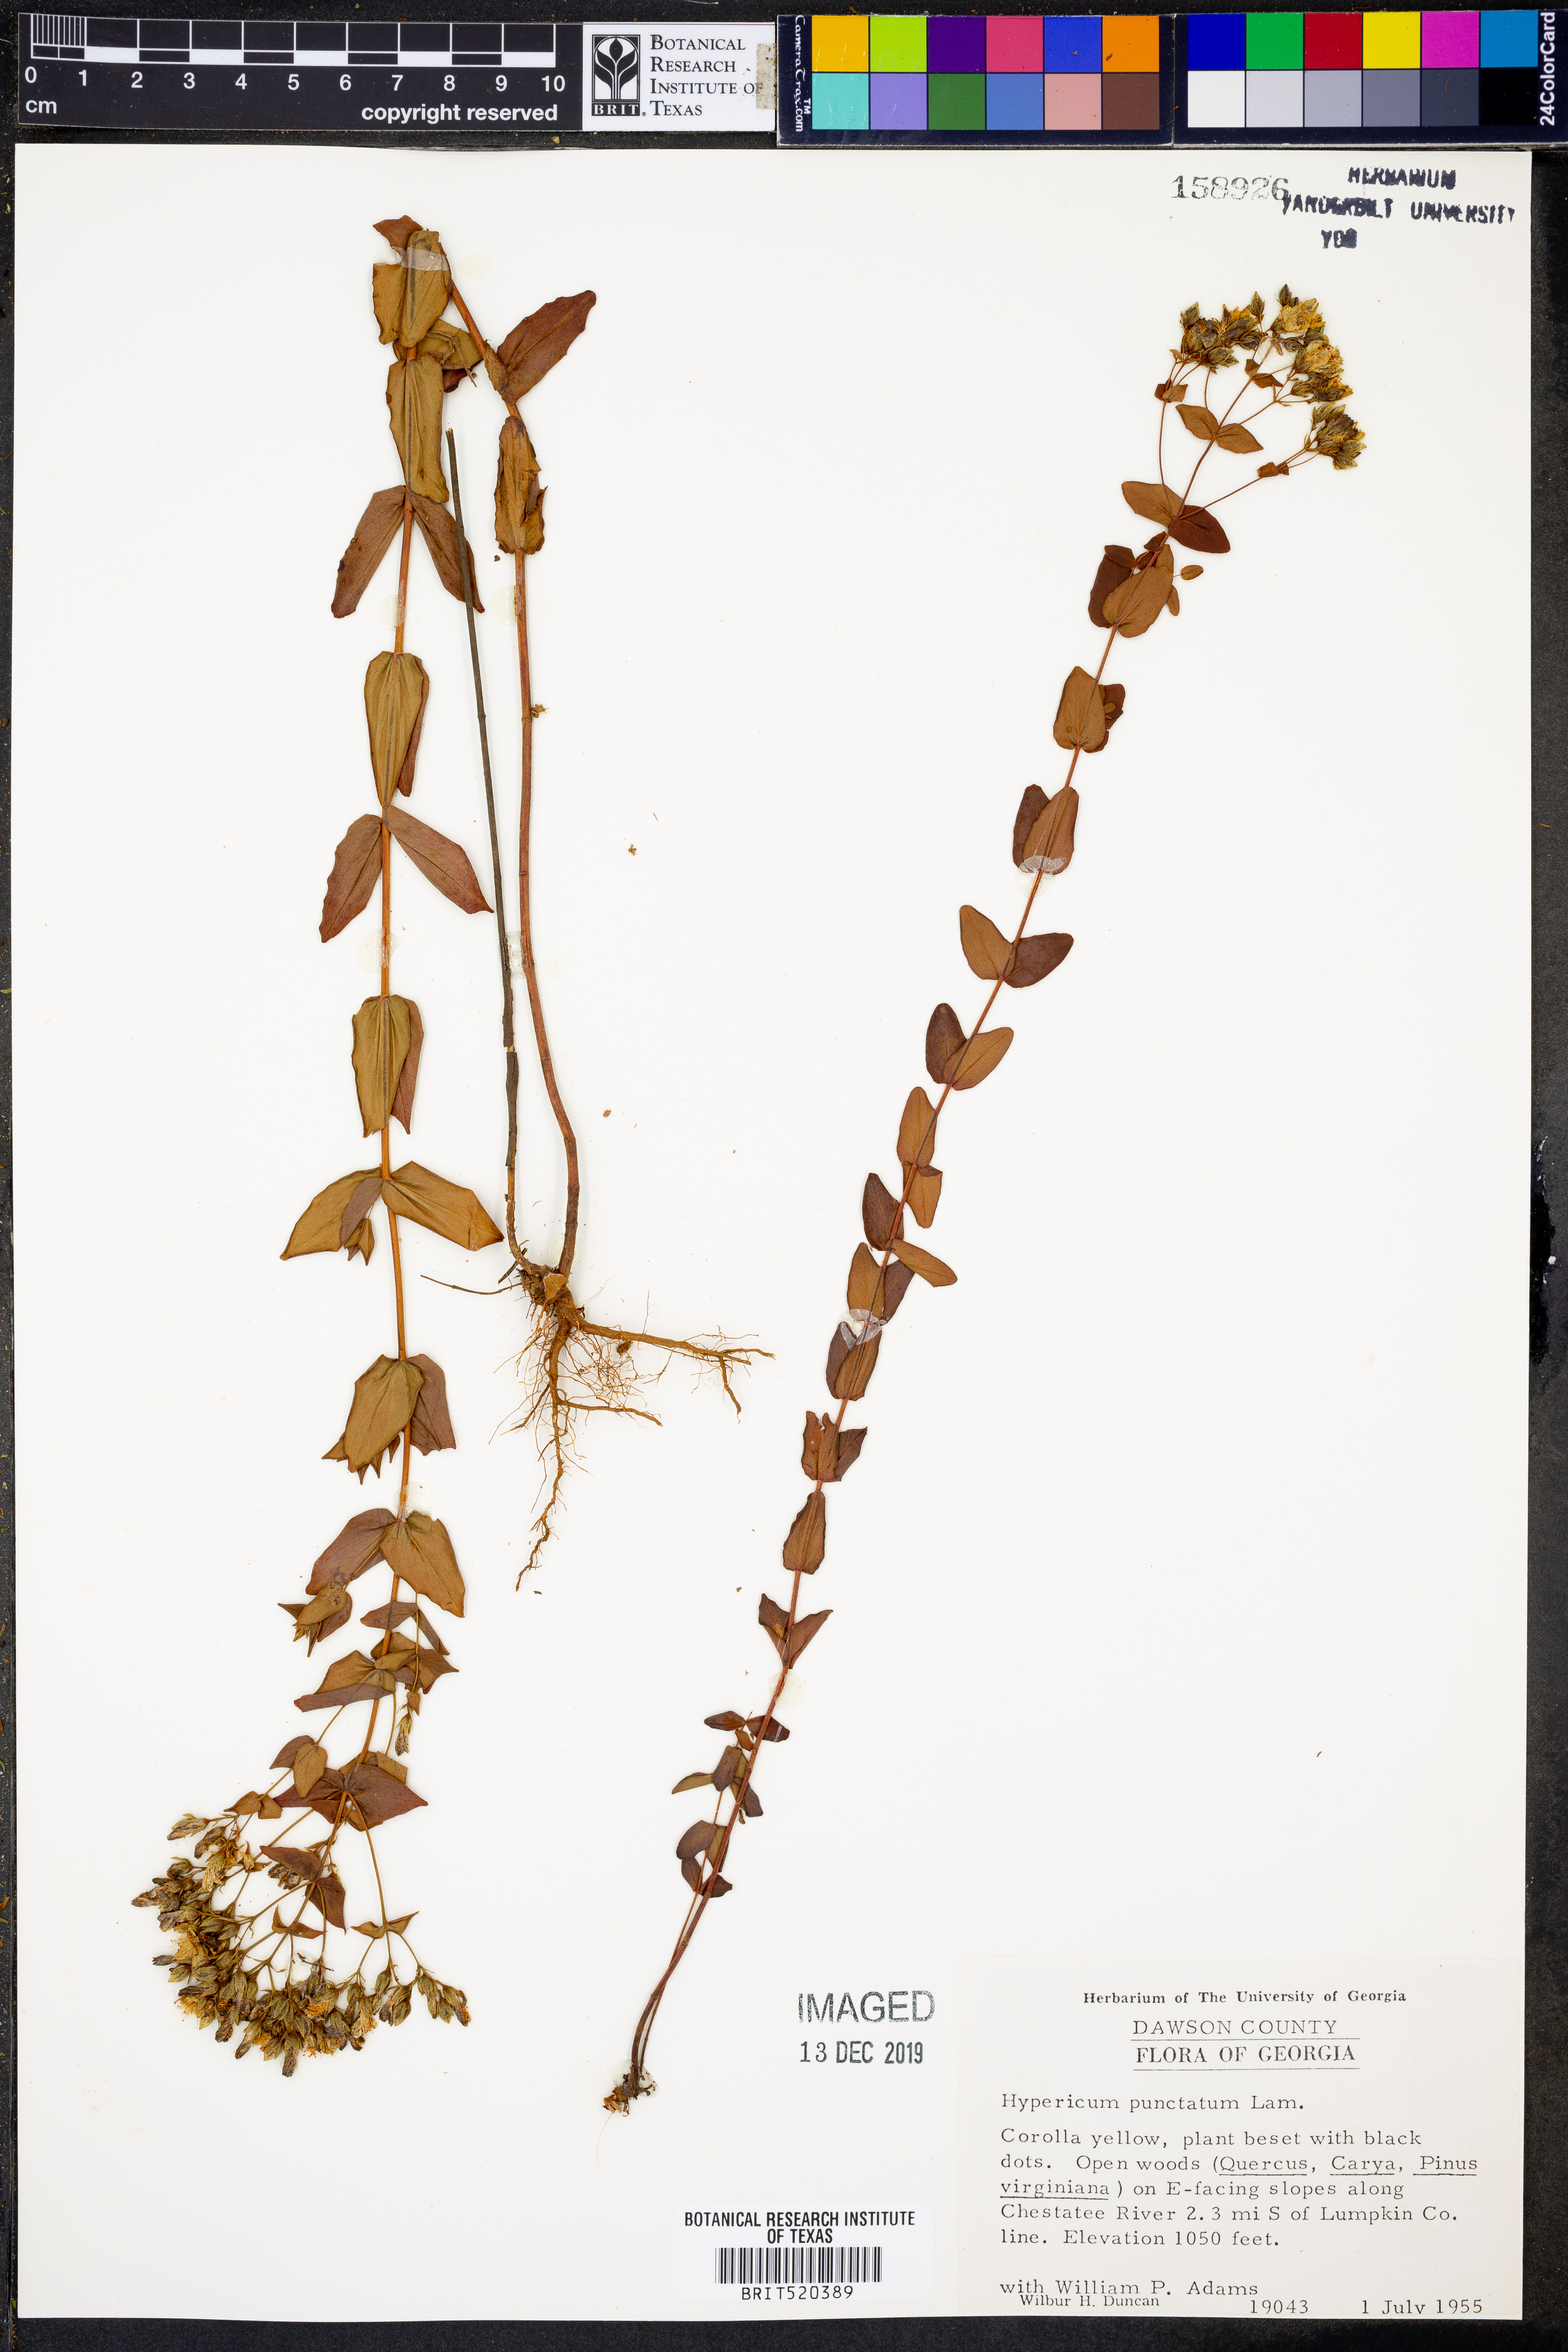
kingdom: Plantae
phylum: Tracheophyta
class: Magnoliopsida
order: Malpighiales
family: Hypericaceae
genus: Hypericum
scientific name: Hypericum punctatum
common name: Spotted st. john's-wort
